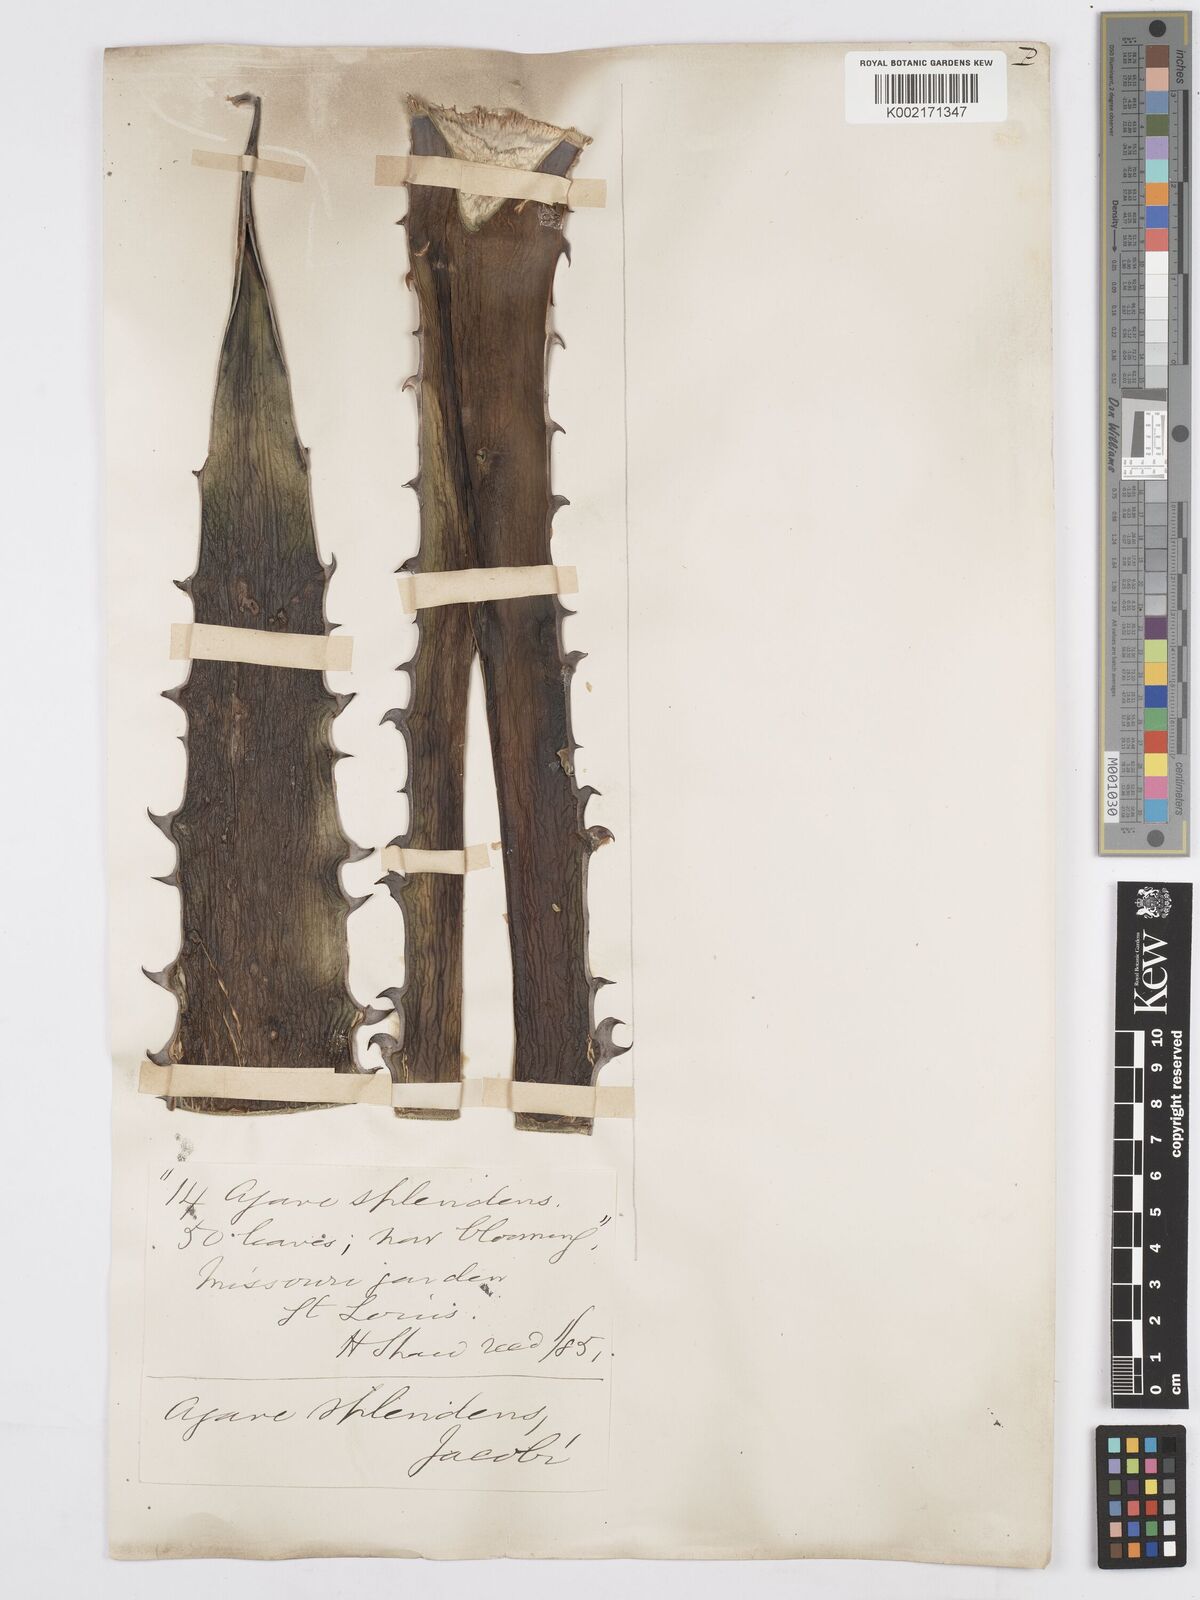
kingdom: Plantae
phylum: Tracheophyta
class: Liliopsida
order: Asparagales
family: Asparagaceae
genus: Agave
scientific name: Agave xylonacantha
